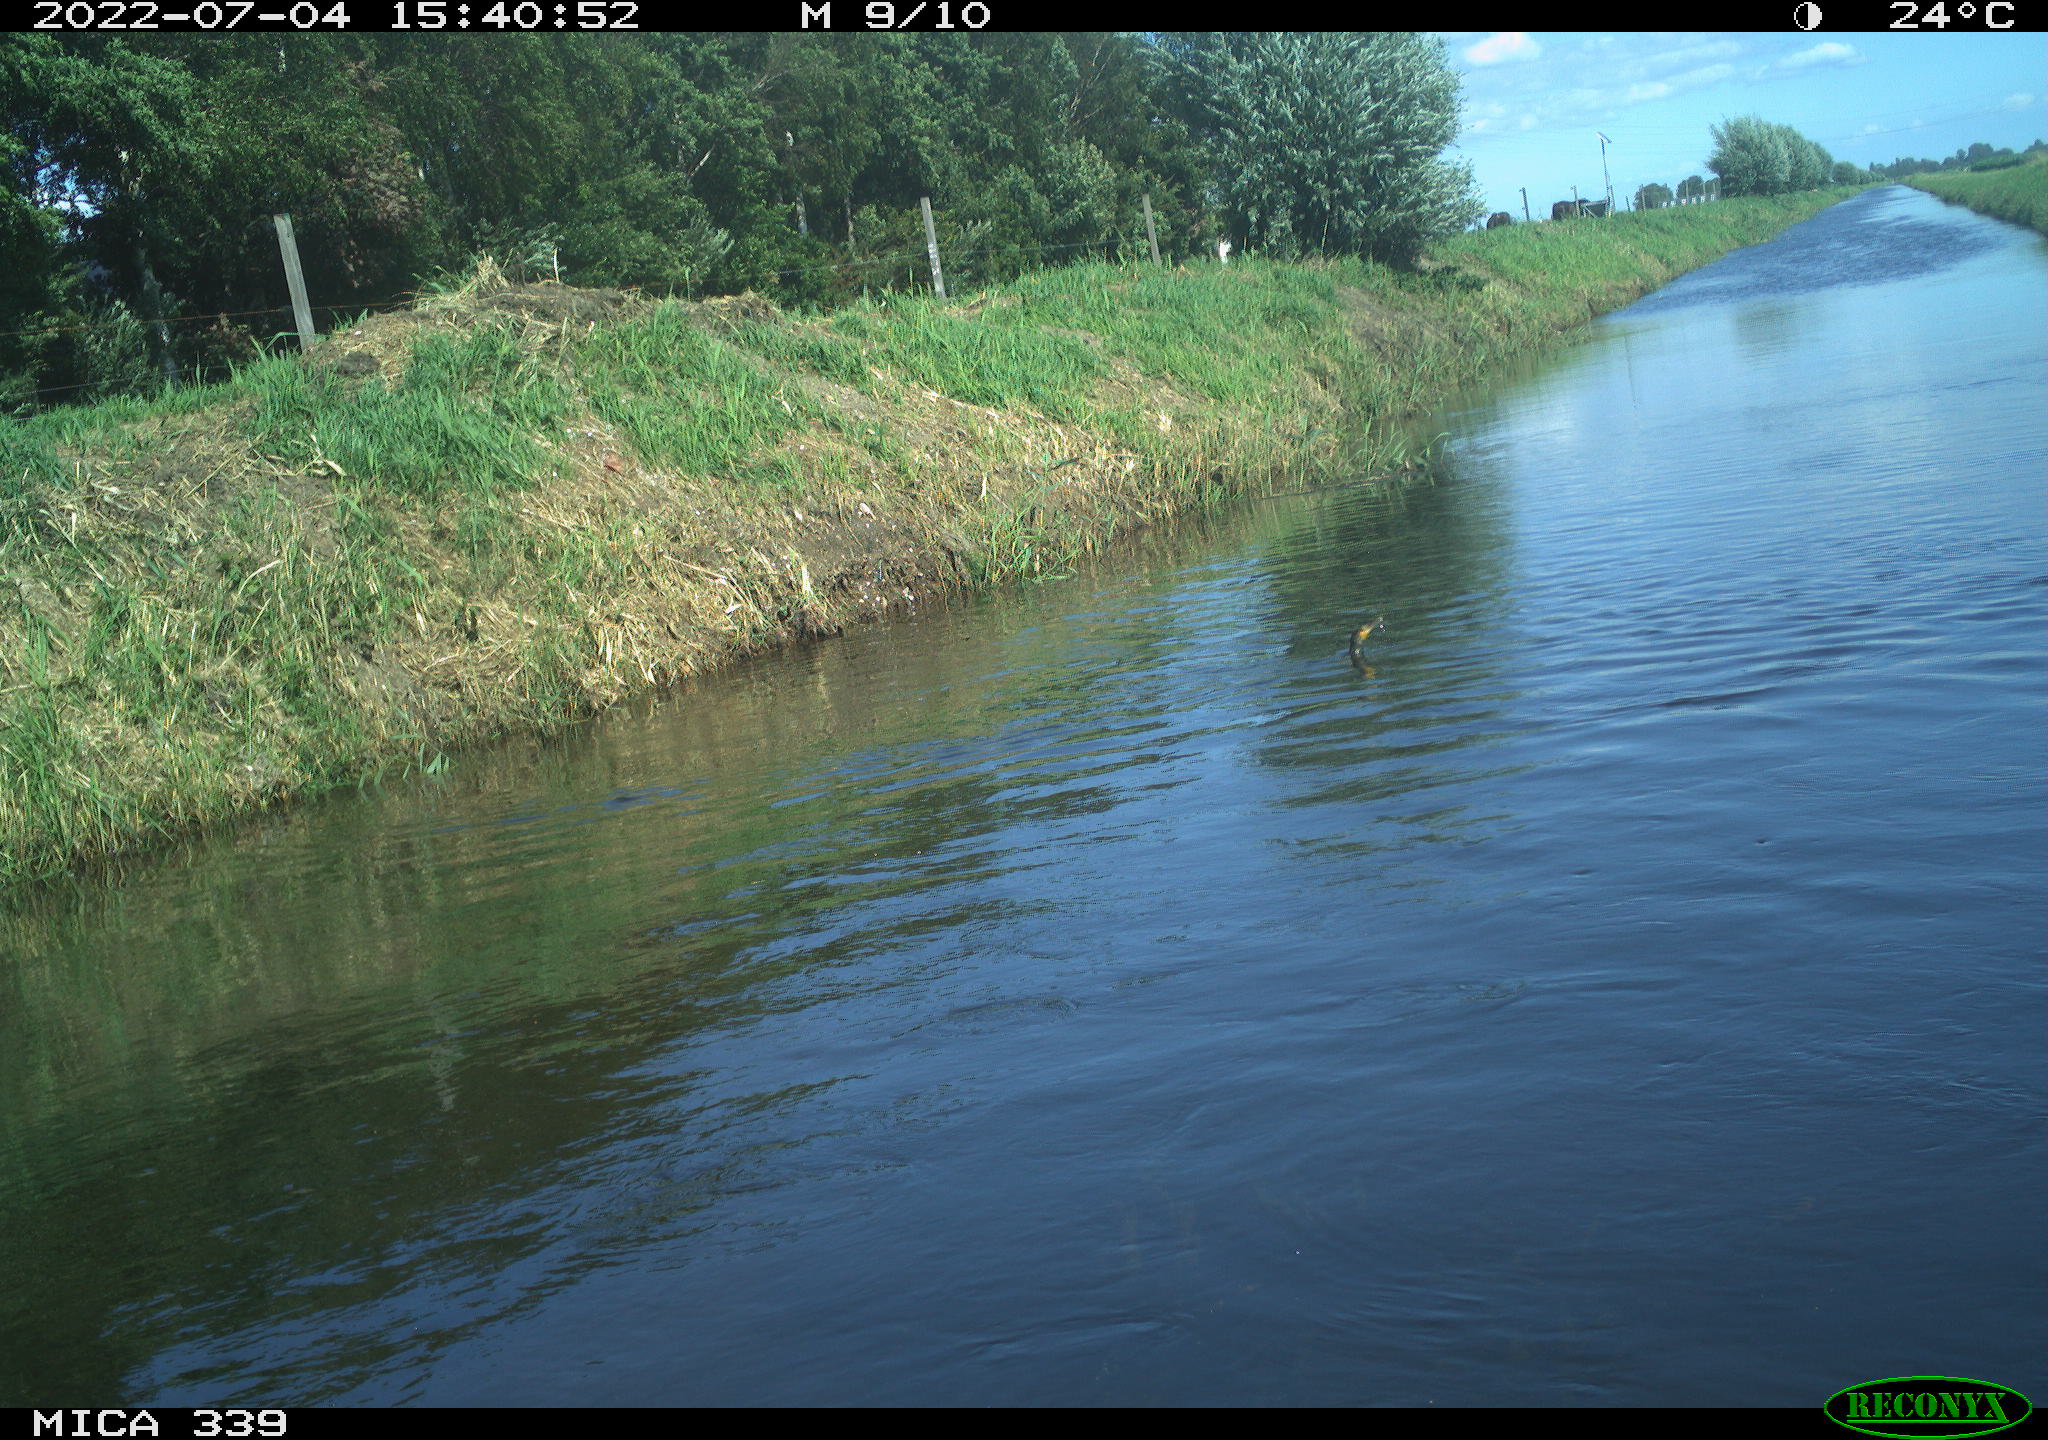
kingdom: Animalia
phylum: Chordata
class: Aves
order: Suliformes
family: Phalacrocoracidae
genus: Phalacrocorax
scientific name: Phalacrocorax carbo
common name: Great cormorant
